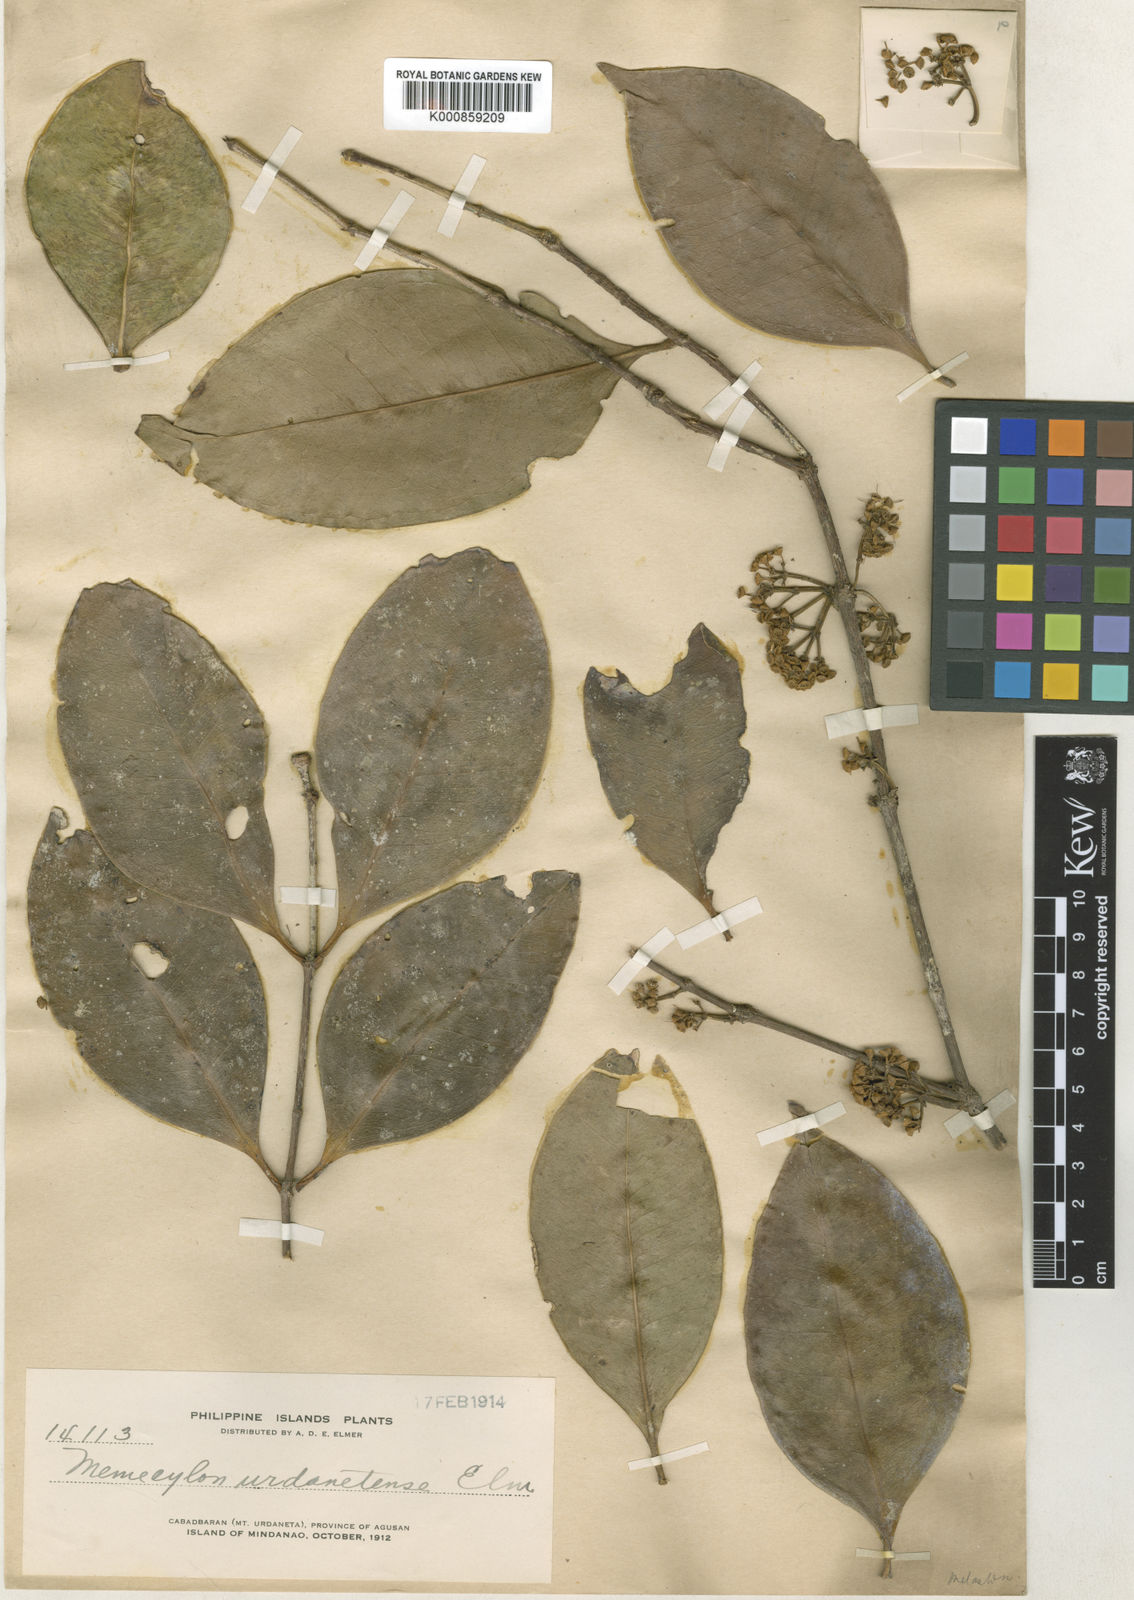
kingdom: Plantae
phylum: Tracheophyta
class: Magnoliopsida
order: Myrtales
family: Melastomataceae
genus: Memecylon
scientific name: Memecylon apoense
